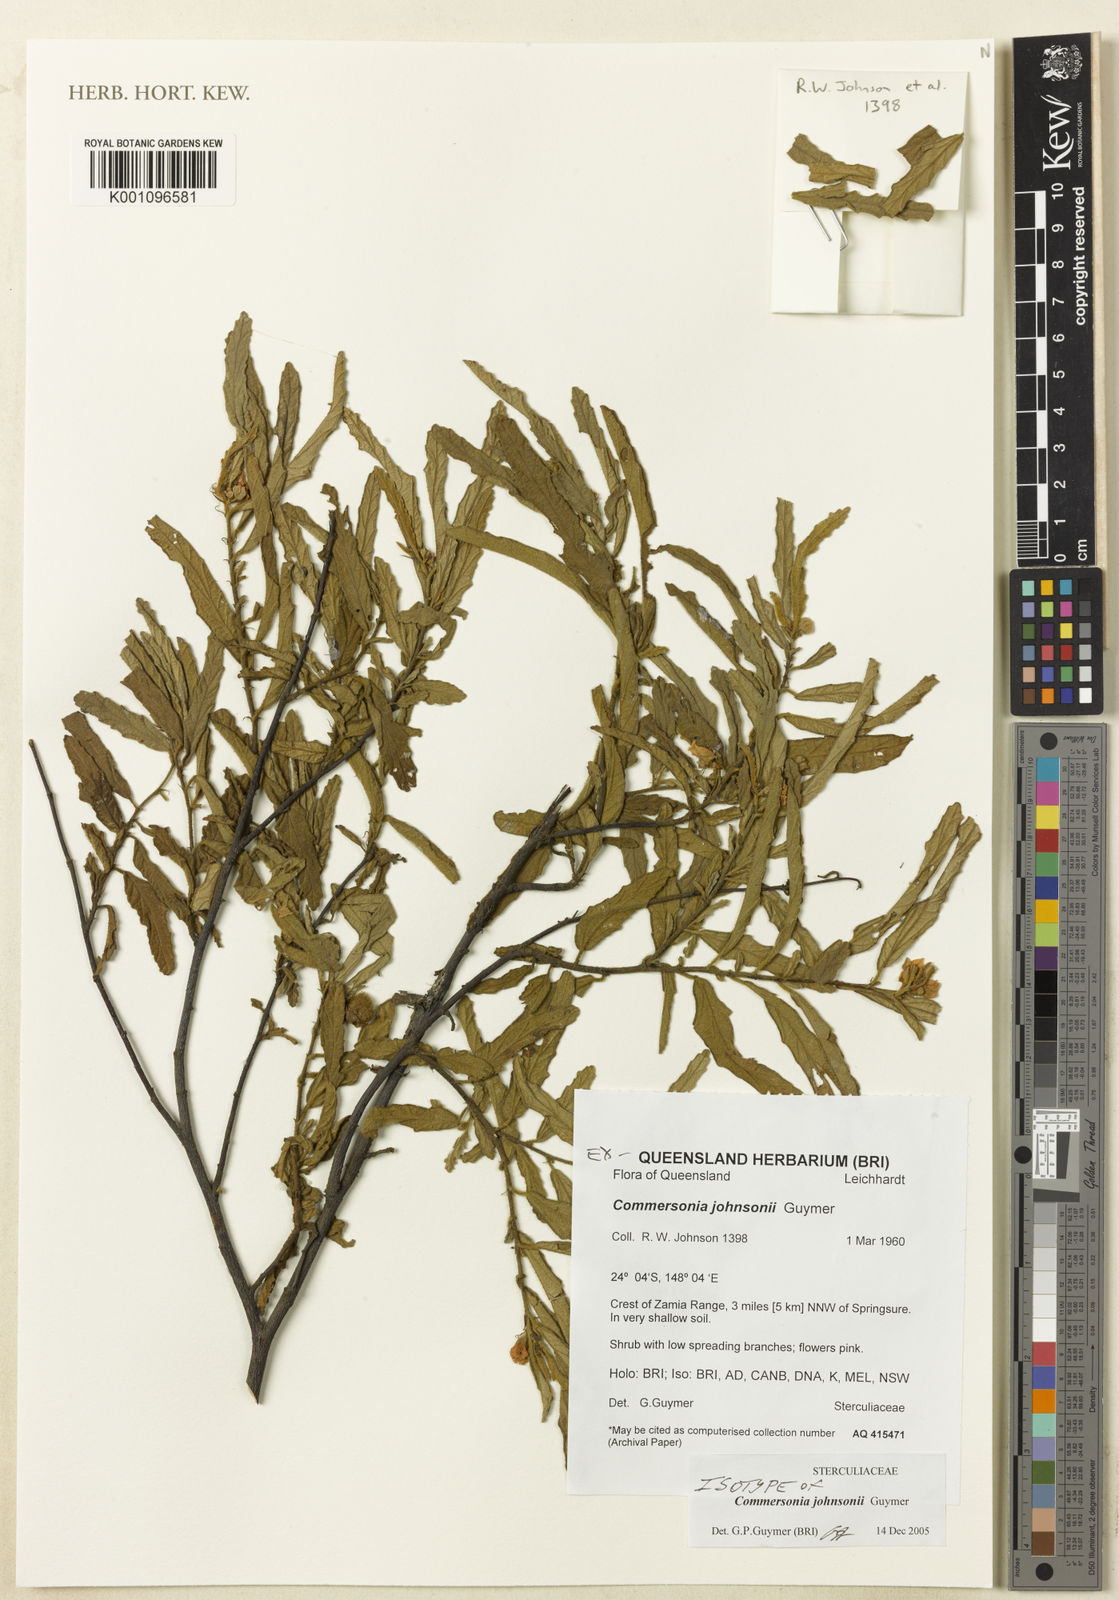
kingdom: Plantae
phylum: Tracheophyta
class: Magnoliopsida
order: Malvales
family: Malvaceae
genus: Androcalva
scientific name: Androcalva johnsonii
